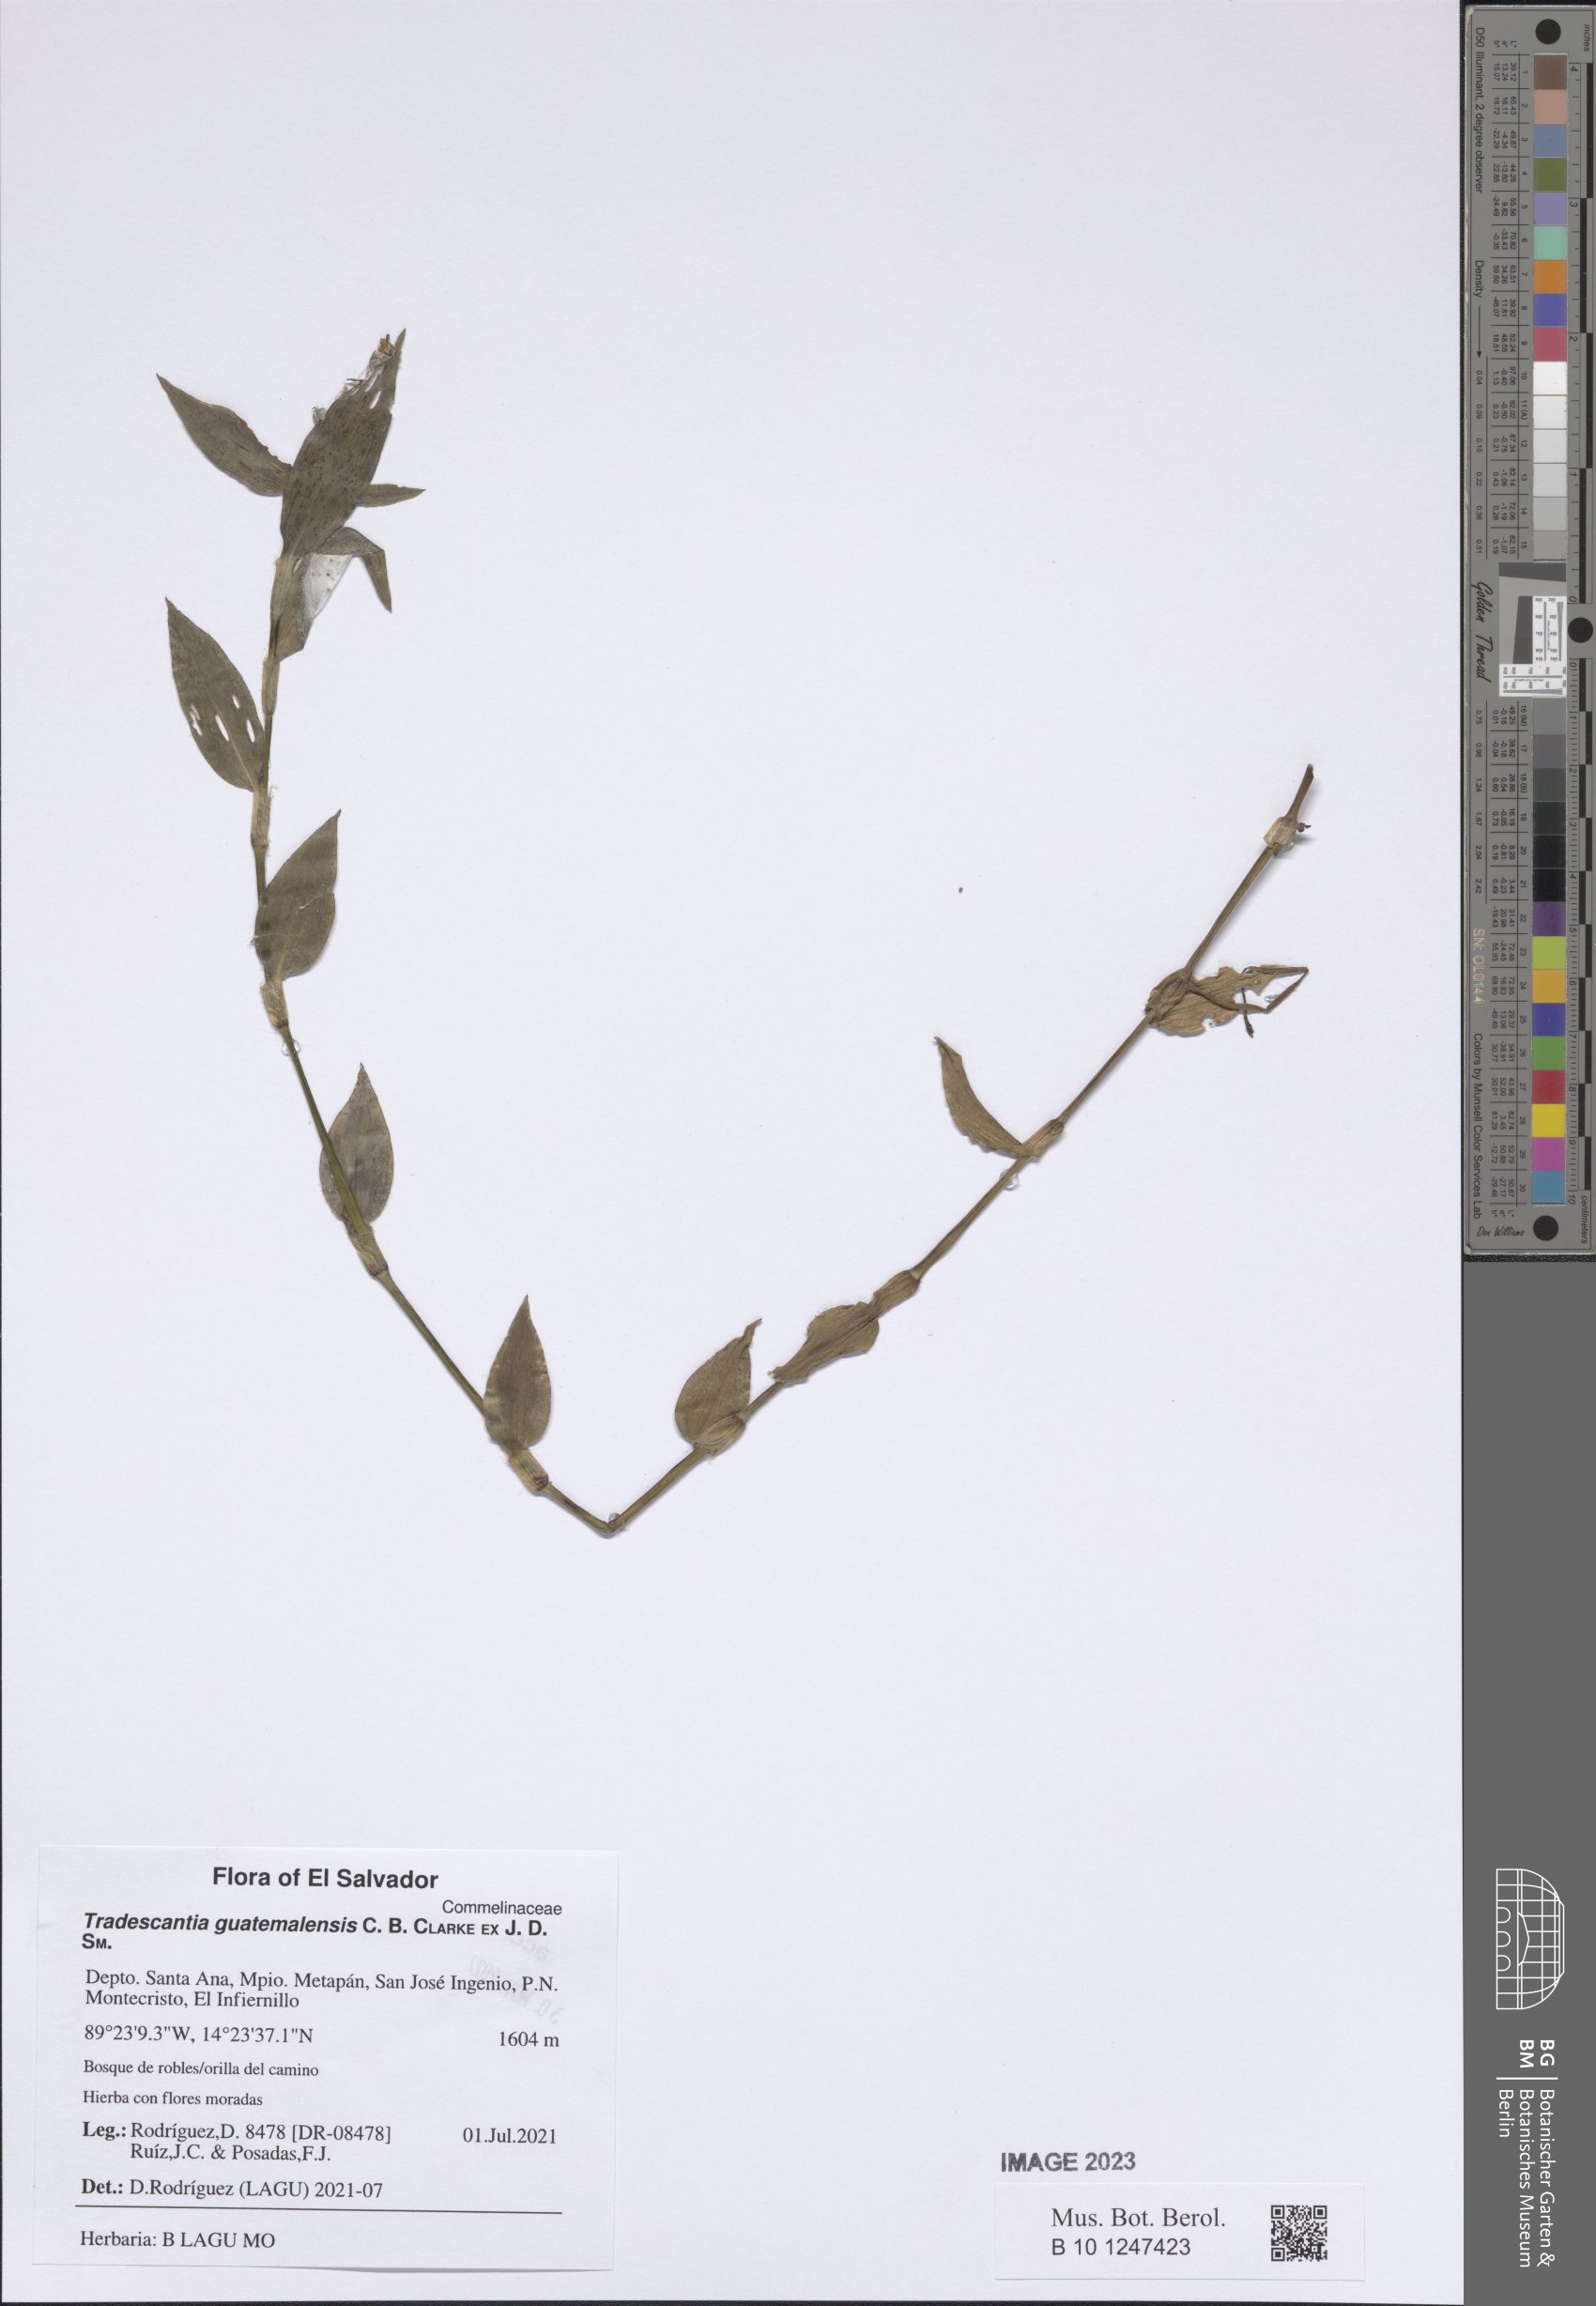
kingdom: Plantae
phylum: Tracheophyta
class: Liliopsida
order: Commelinales
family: Commelinaceae
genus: Elasis
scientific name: Elasis guatemalensis
